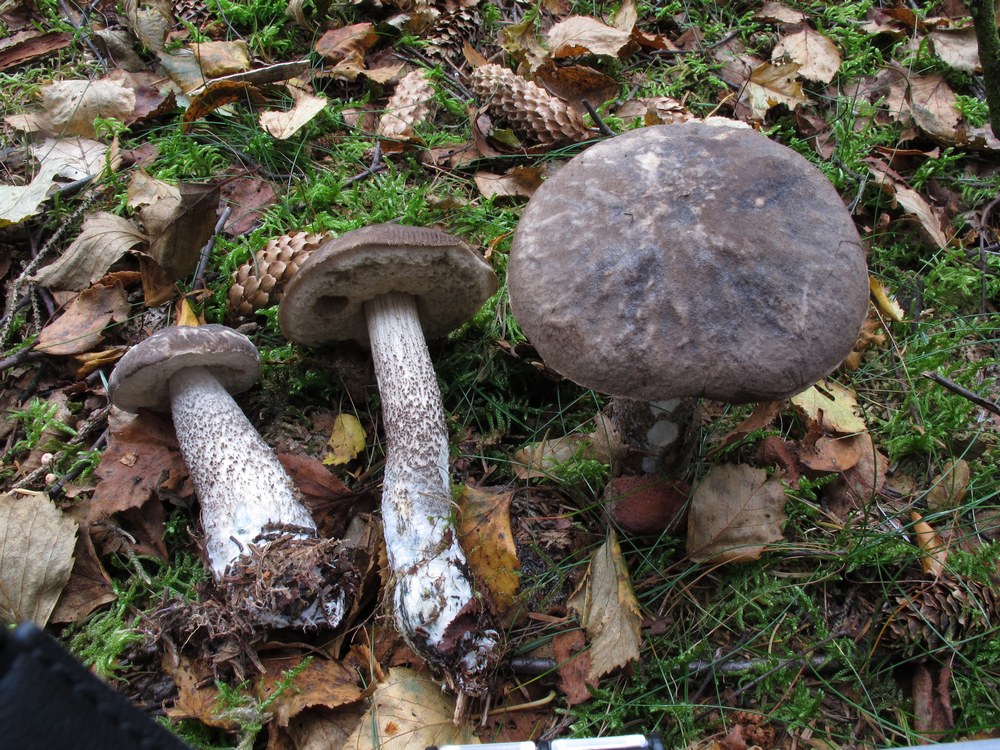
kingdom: Fungi
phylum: Basidiomycota
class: Agaricomycetes
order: Boletales
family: Boletaceae
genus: Leccinum
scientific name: Leccinum variicolor
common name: flammet skælrørhat
